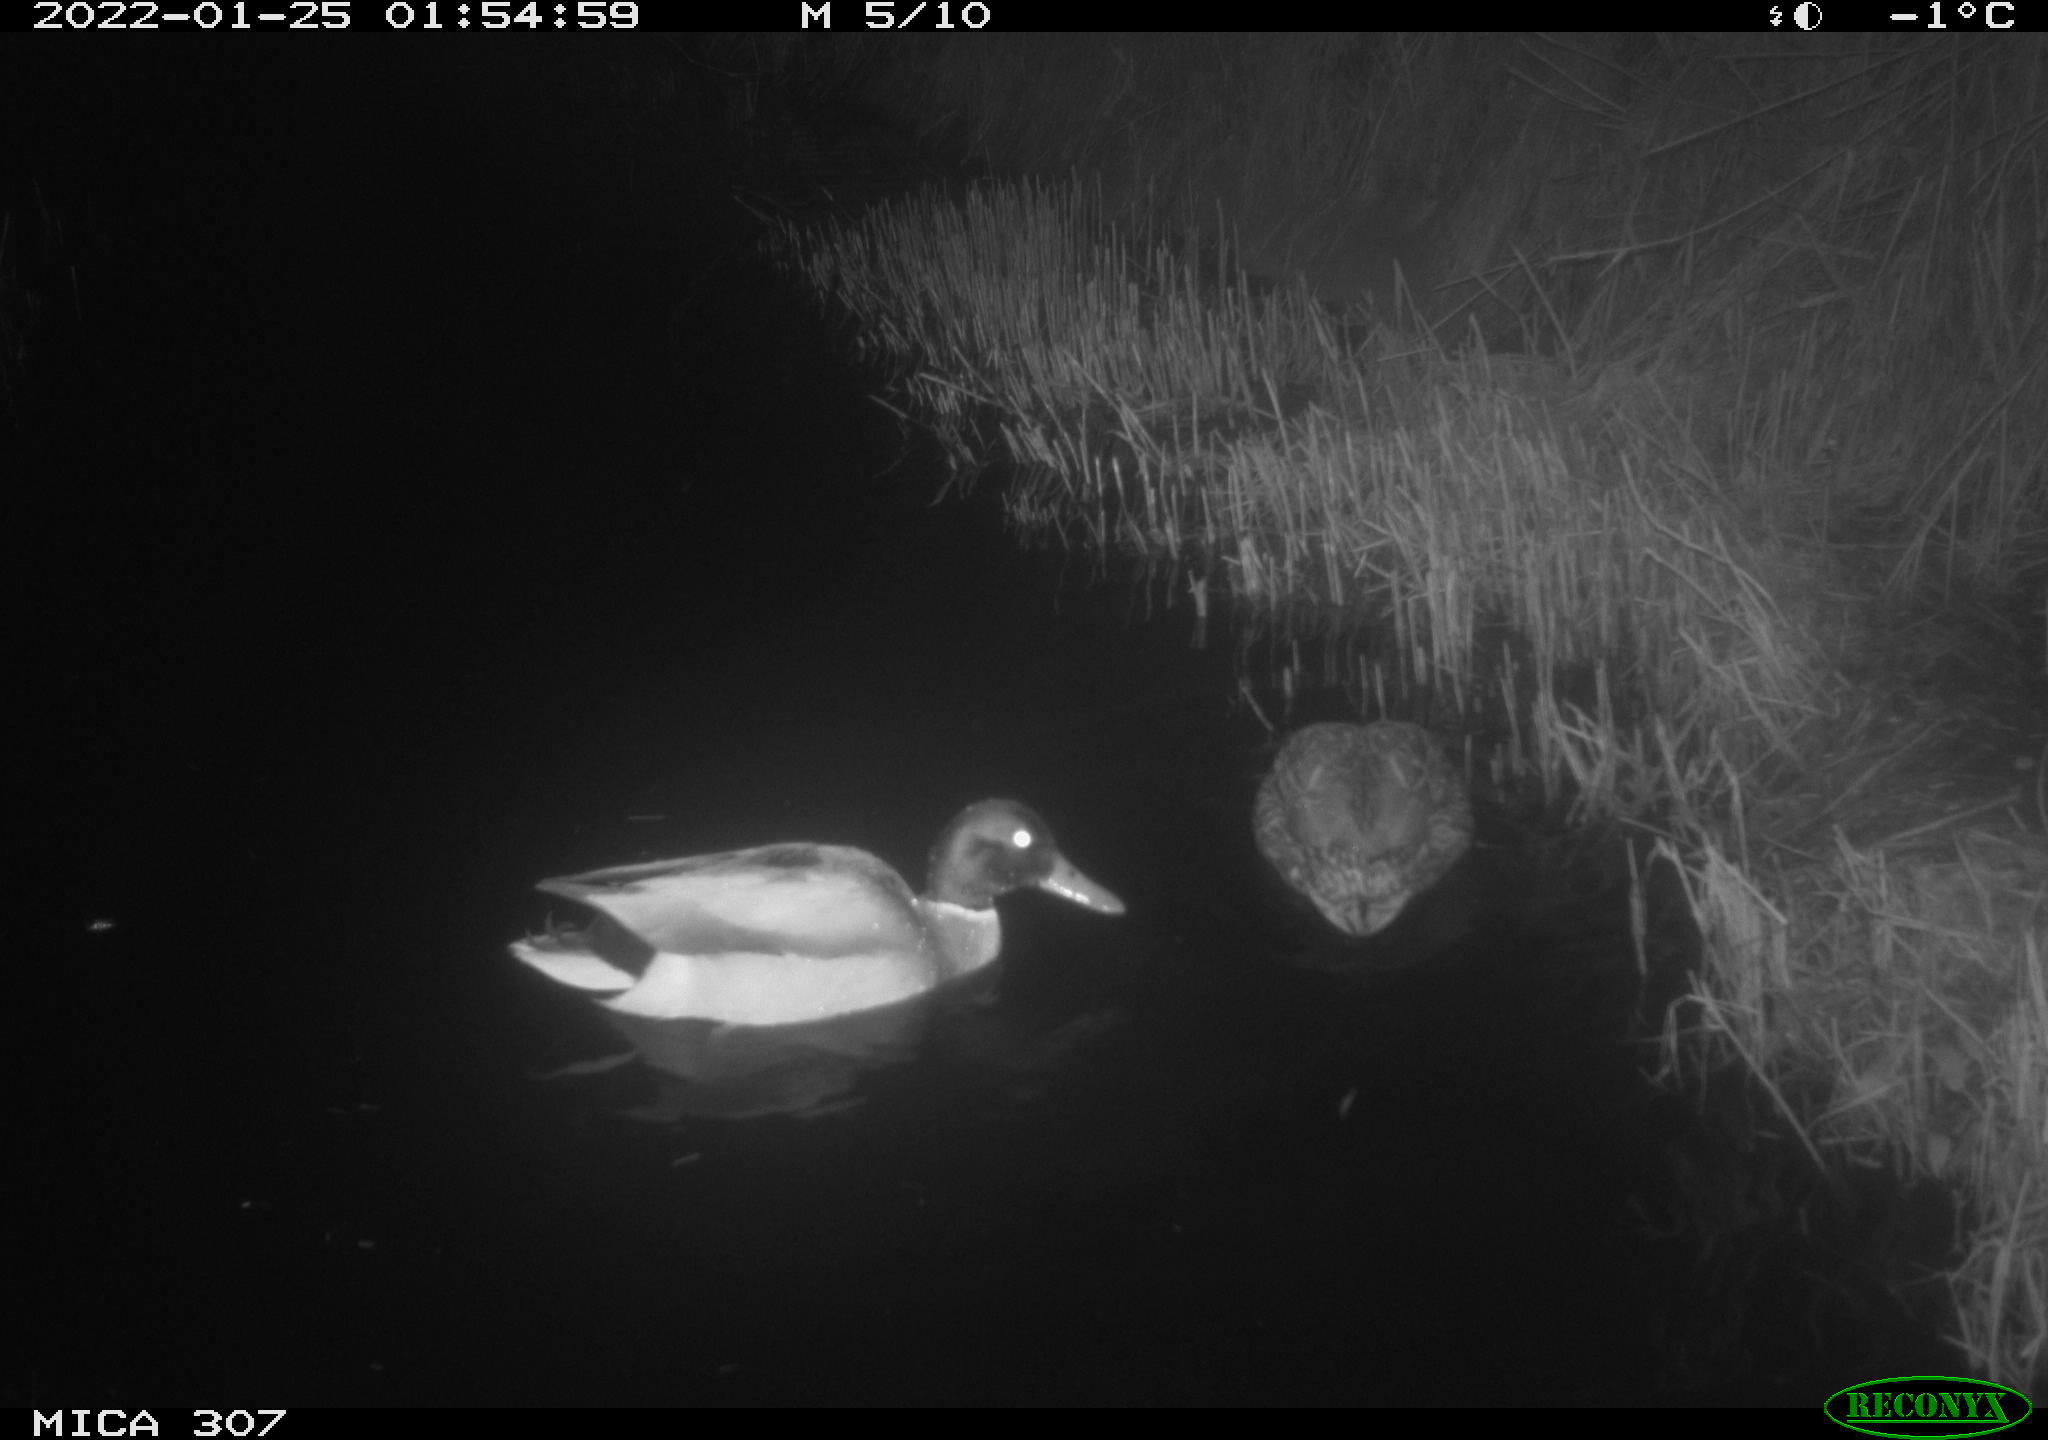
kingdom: Animalia
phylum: Chordata
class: Mammalia
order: Rodentia
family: Muridae
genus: Rattus
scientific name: Rattus norvegicus
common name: Brown rat
